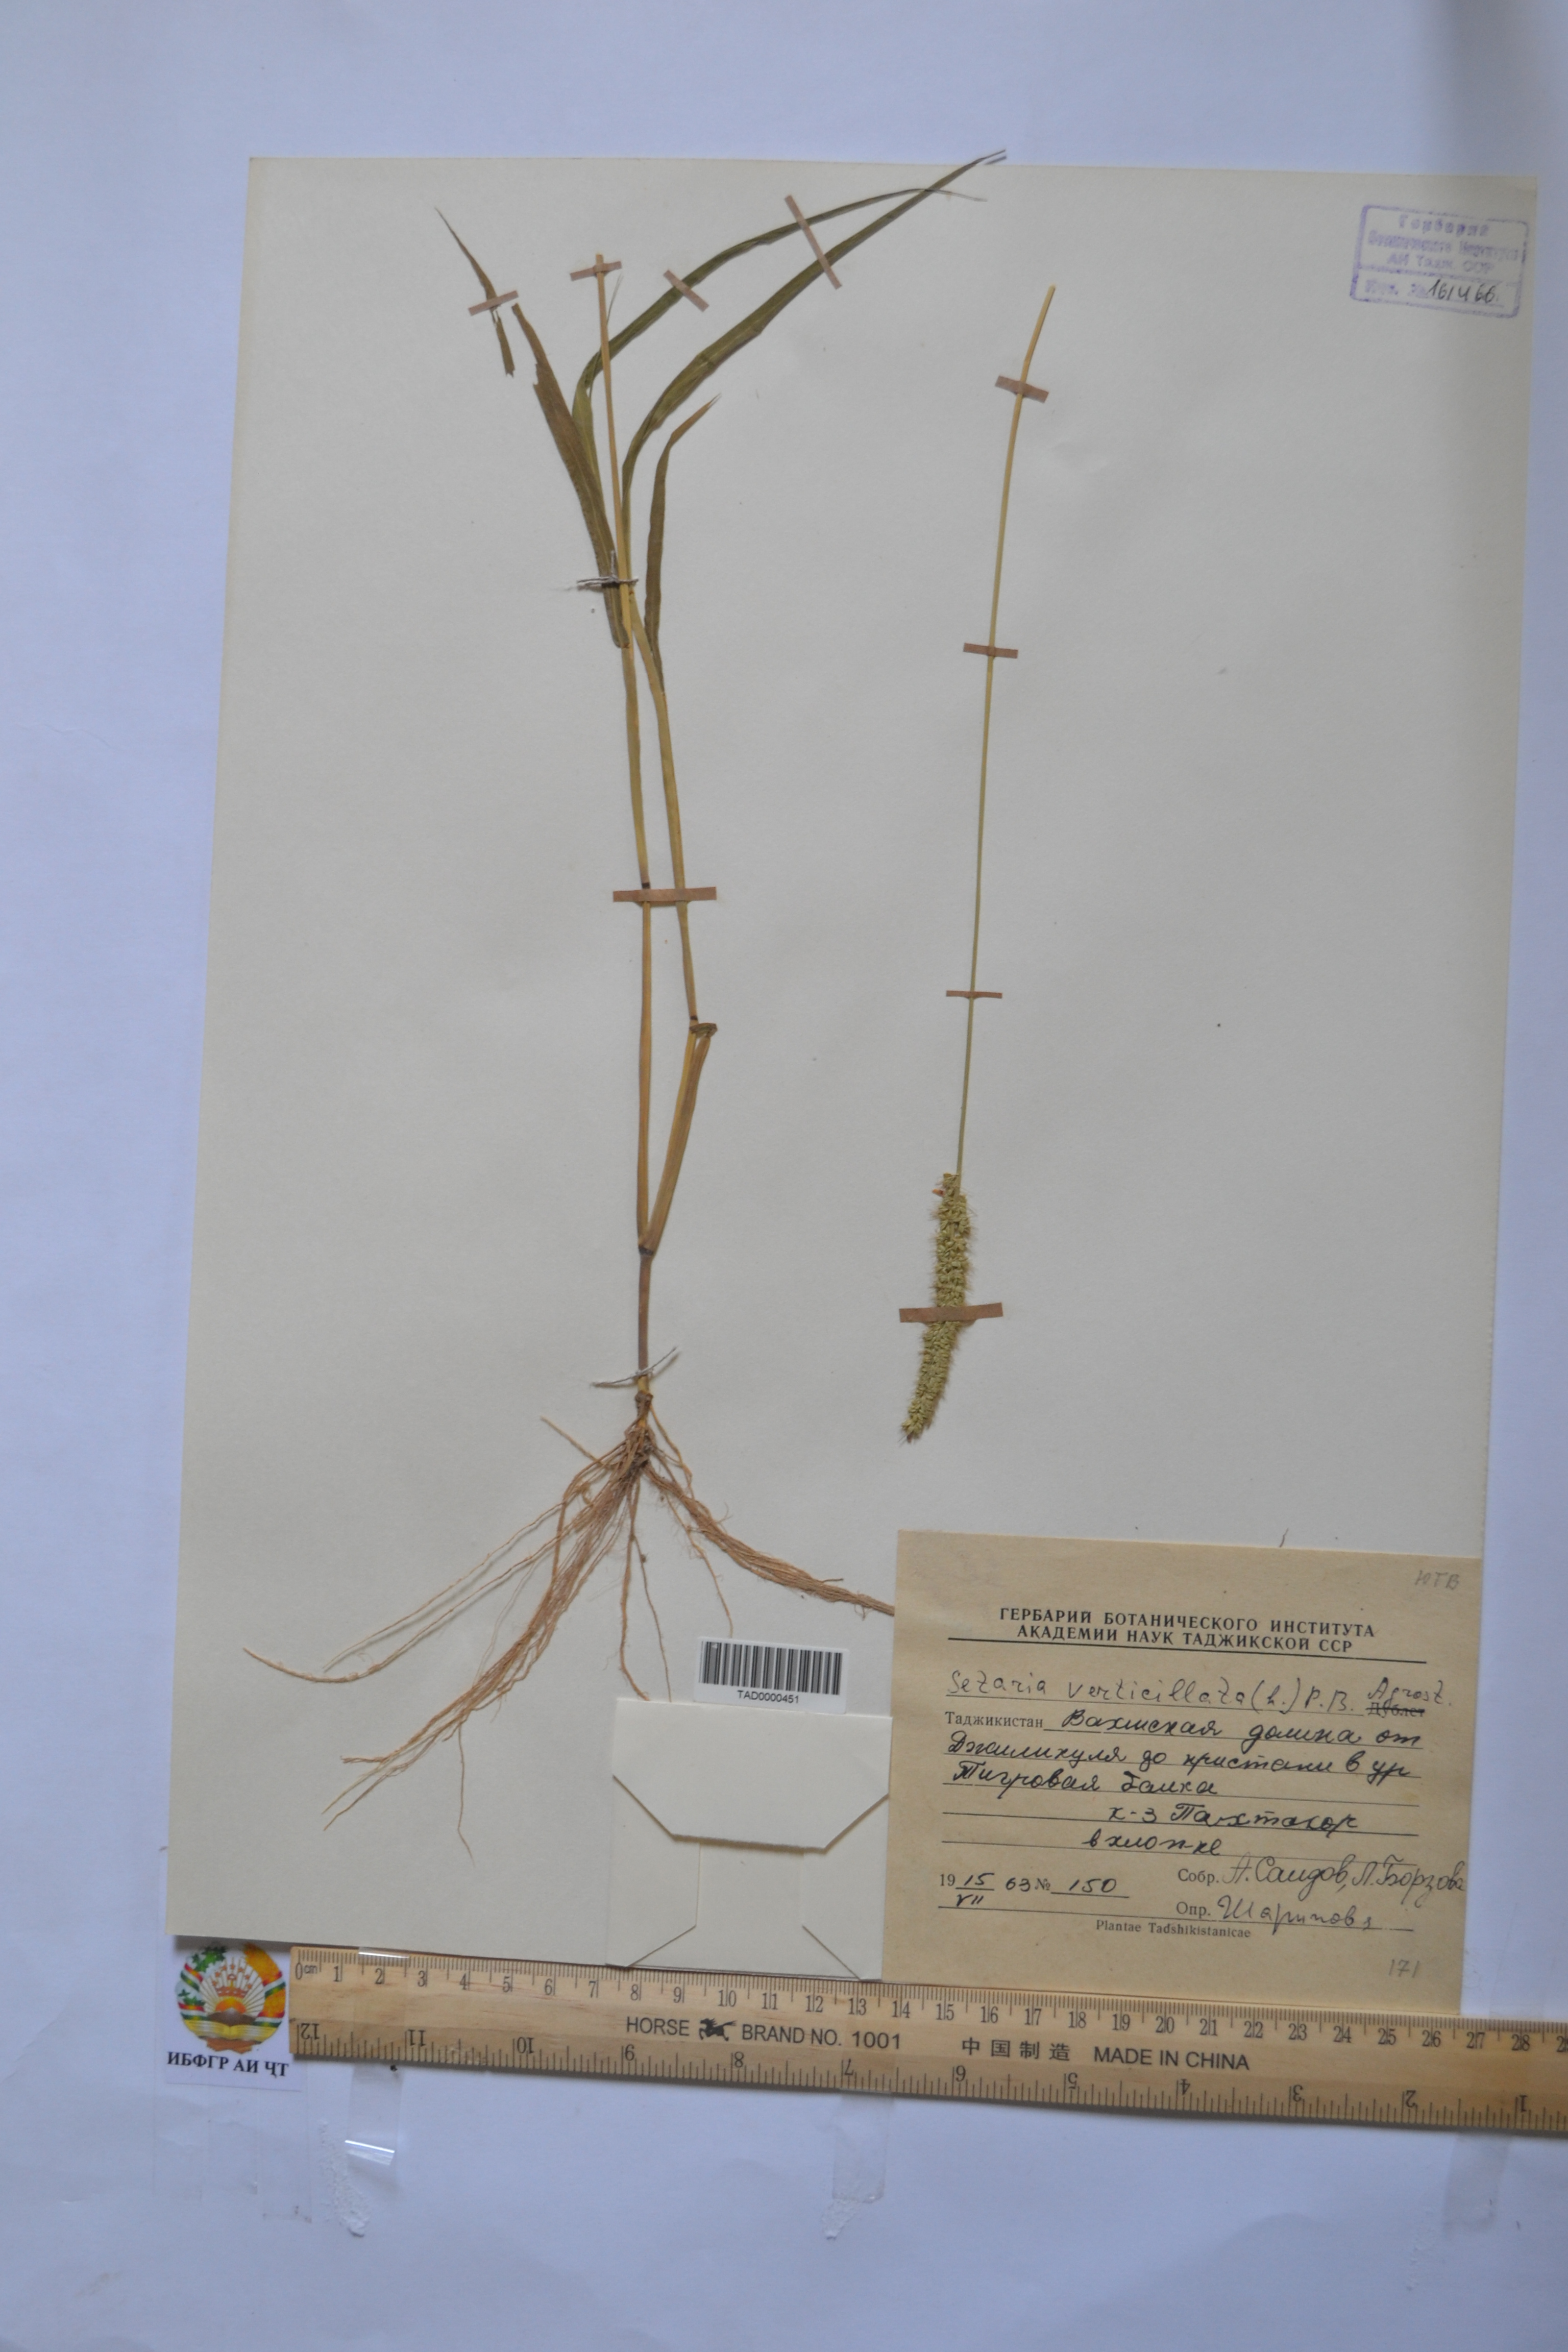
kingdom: Plantae
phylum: Tracheophyta
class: Liliopsida
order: Poales
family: Poaceae
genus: Setaria
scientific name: Setaria verticillata
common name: Hooked bristlegrass
